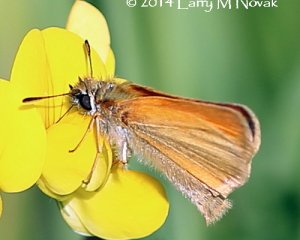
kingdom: Animalia
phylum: Arthropoda
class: Insecta
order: Lepidoptera
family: Hesperiidae
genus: Thymelicus
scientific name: Thymelicus lineola
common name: European Skipper
